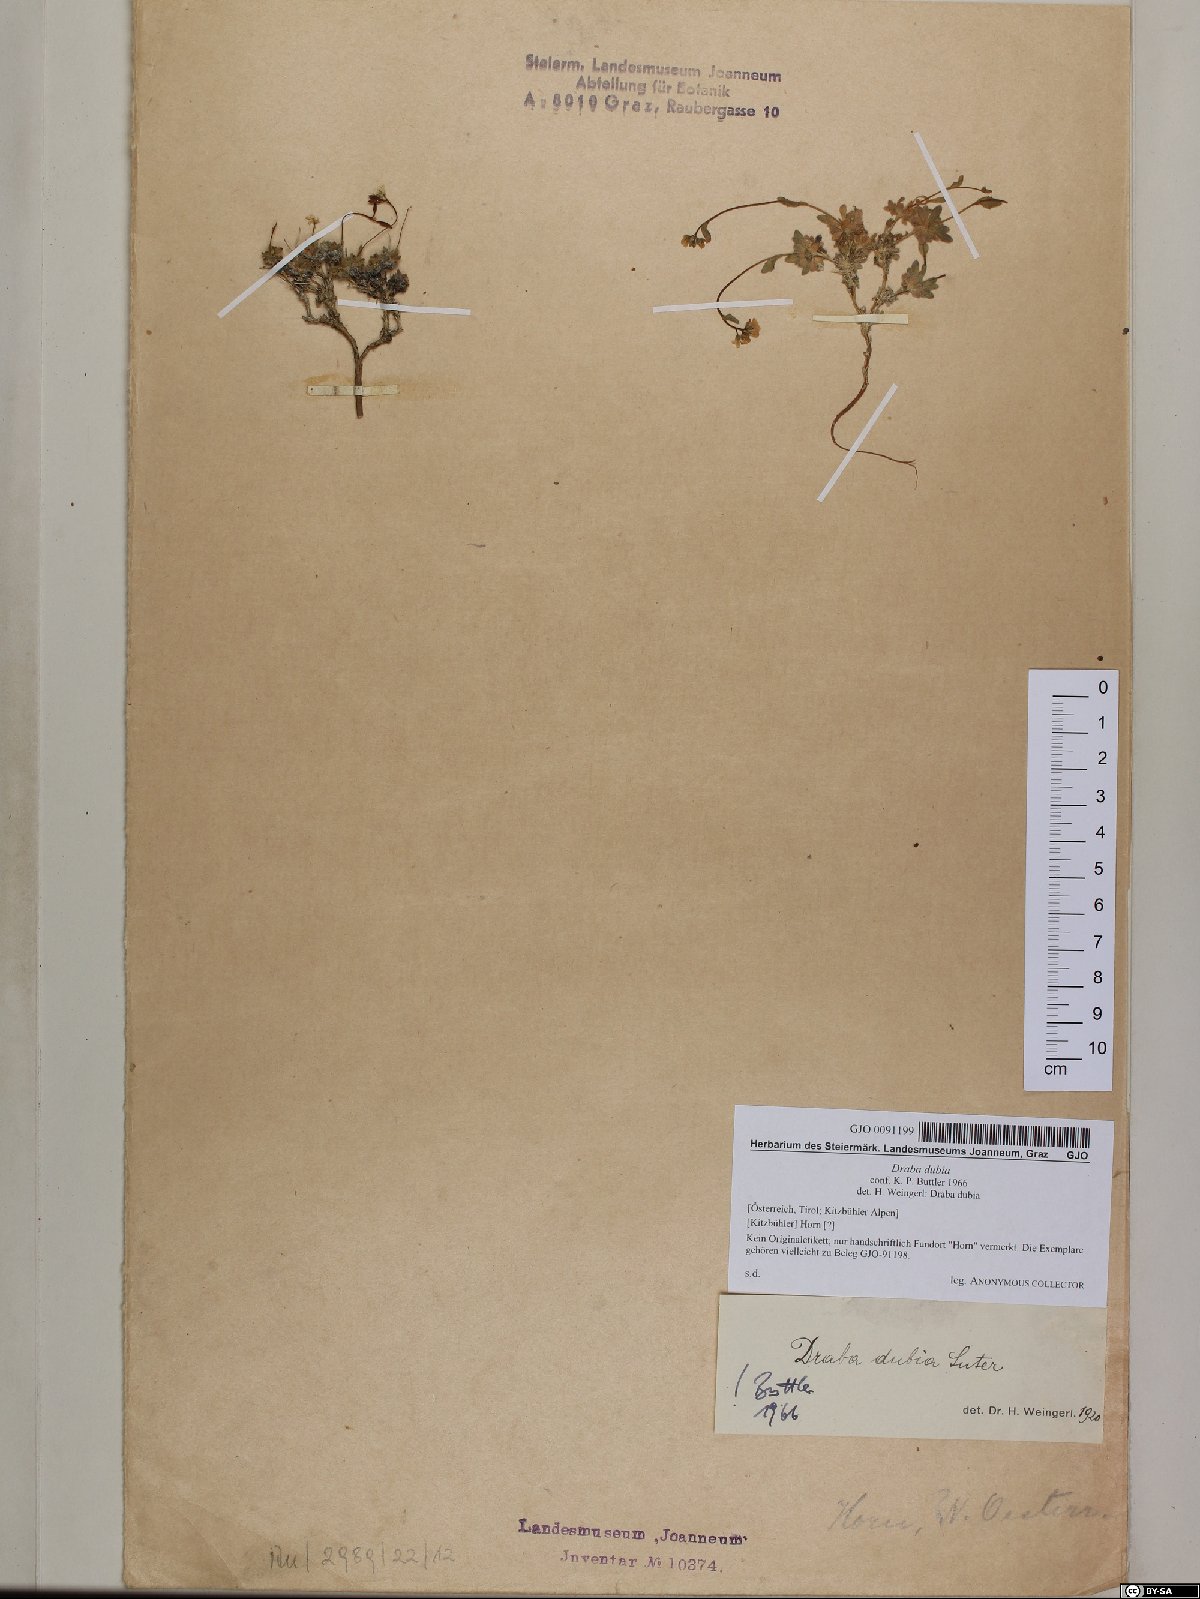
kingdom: Plantae
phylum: Tracheophyta
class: Magnoliopsida
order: Brassicales
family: Brassicaceae
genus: Draba
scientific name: Draba dubia
